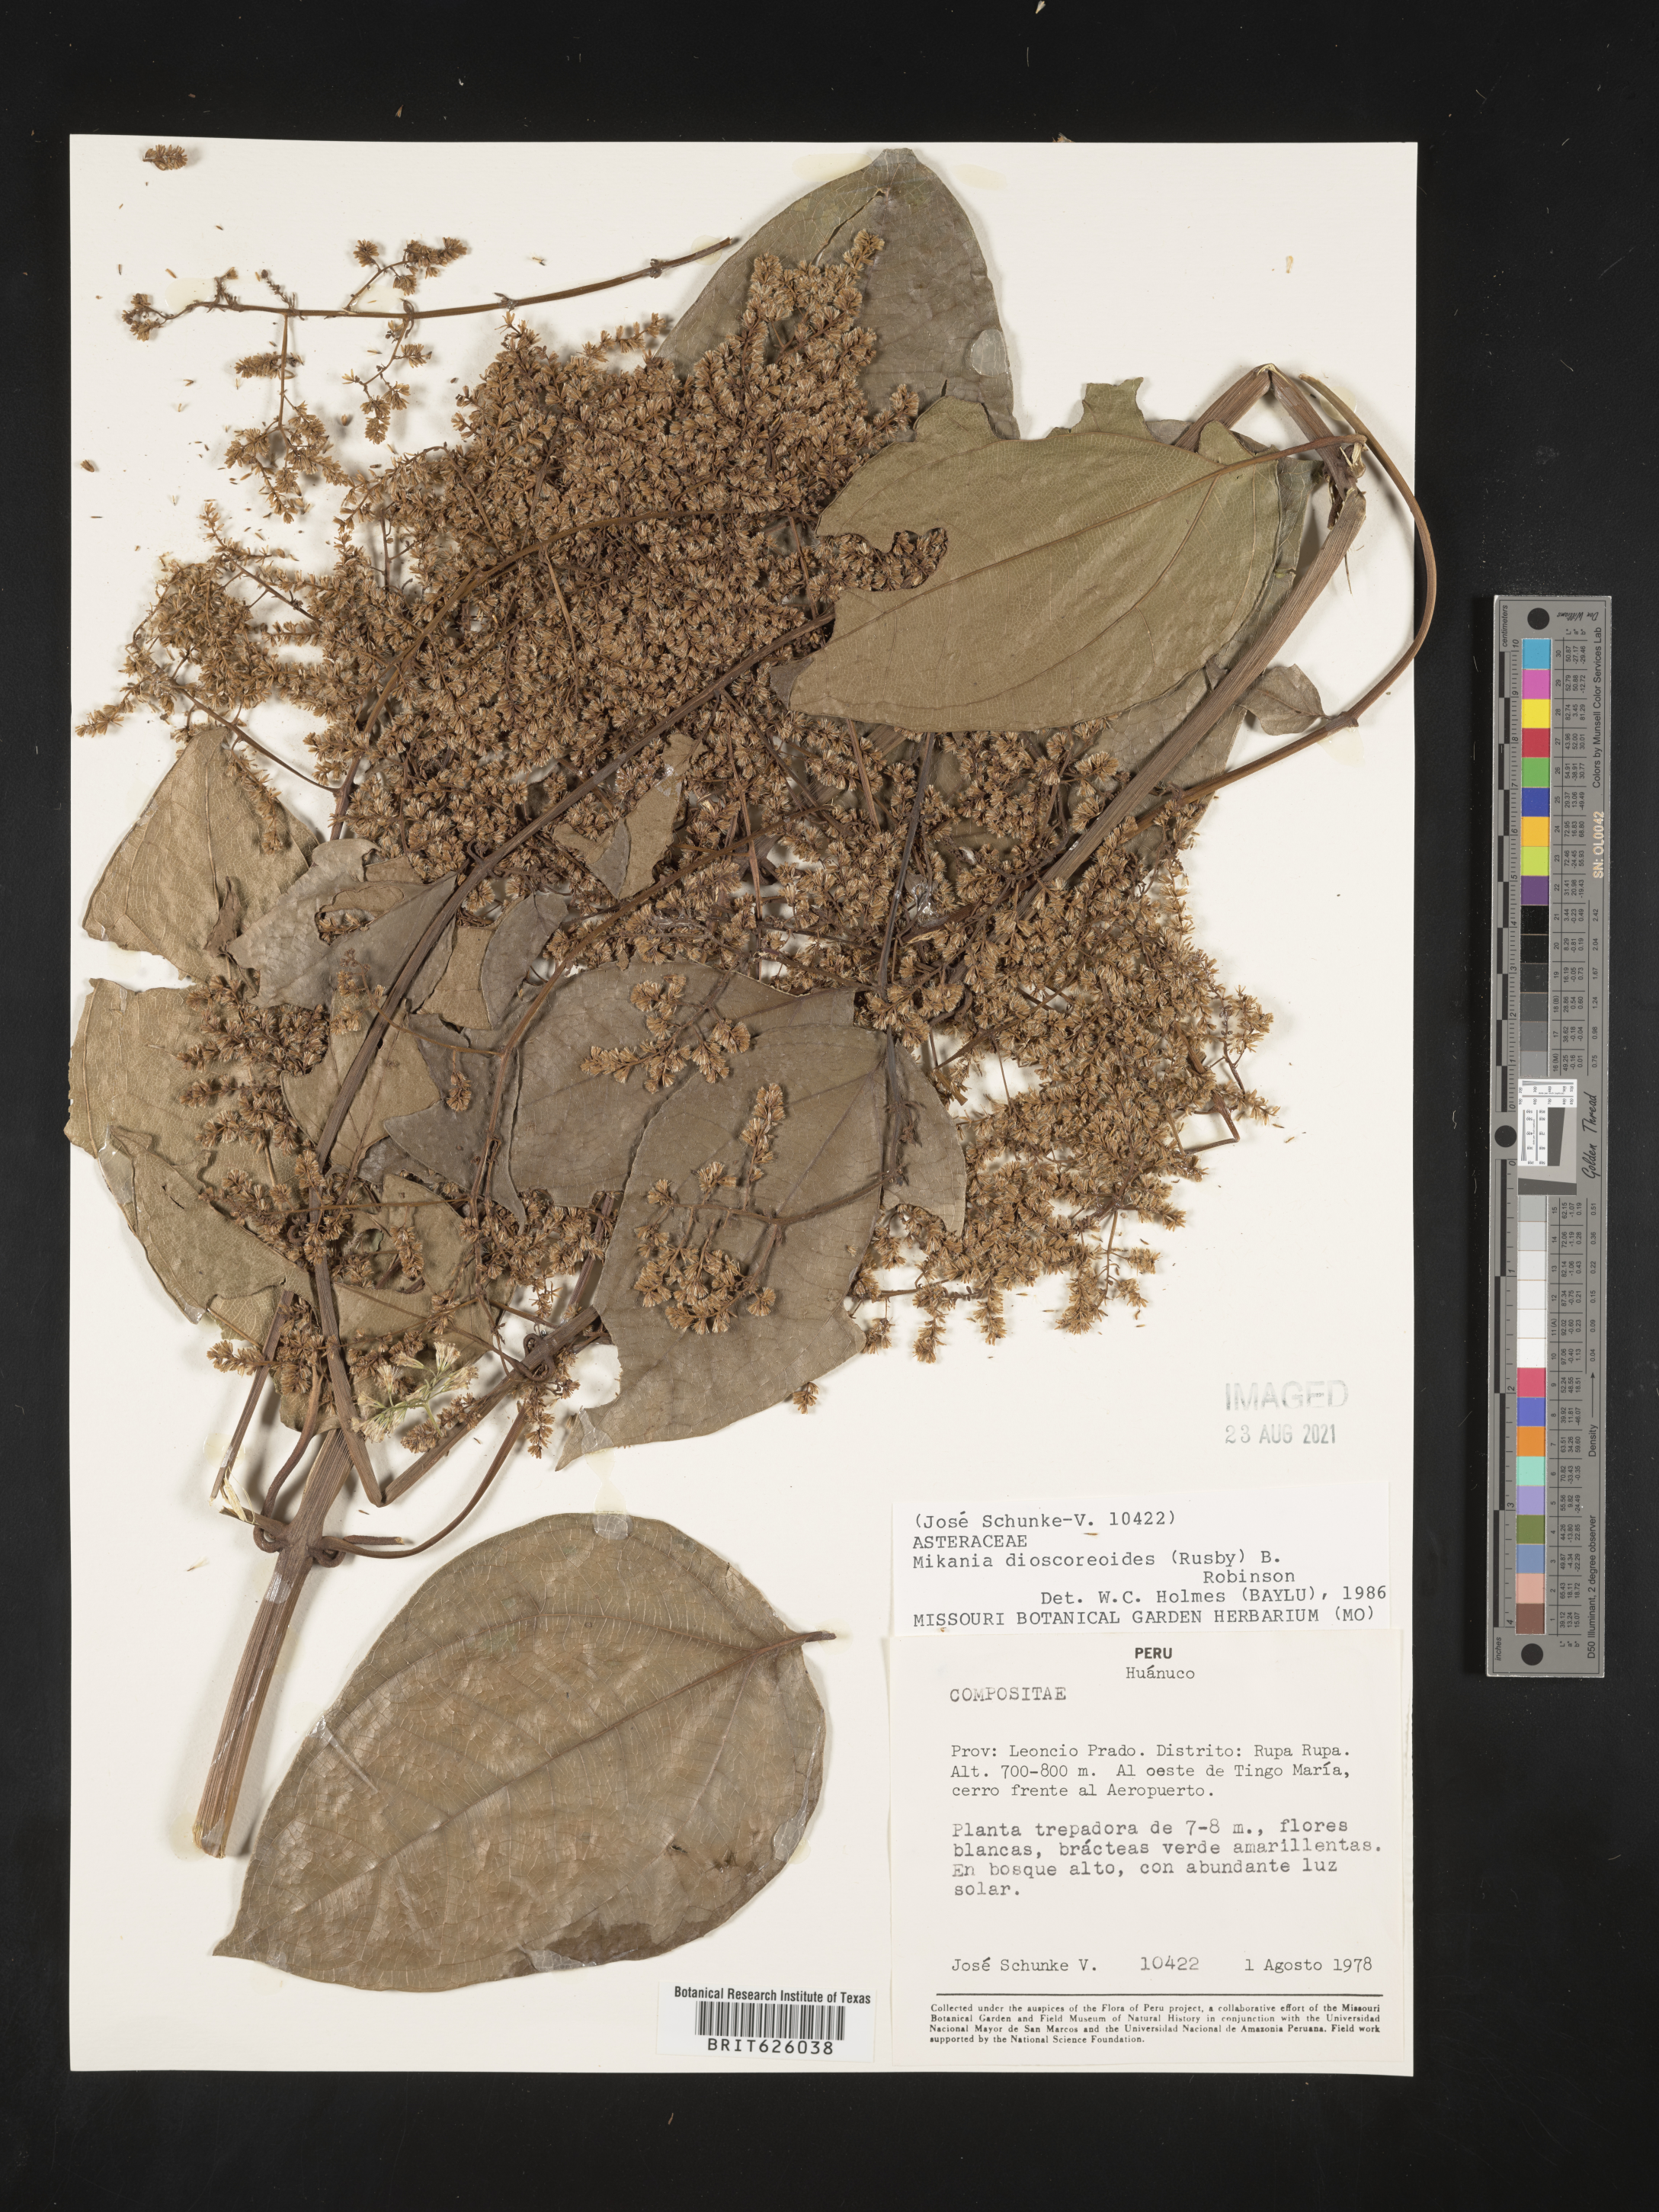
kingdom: Plantae
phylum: Tracheophyta
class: Magnoliopsida
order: Asterales
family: Asteraceae
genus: Mikania
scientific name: Mikania dioscoreoides
